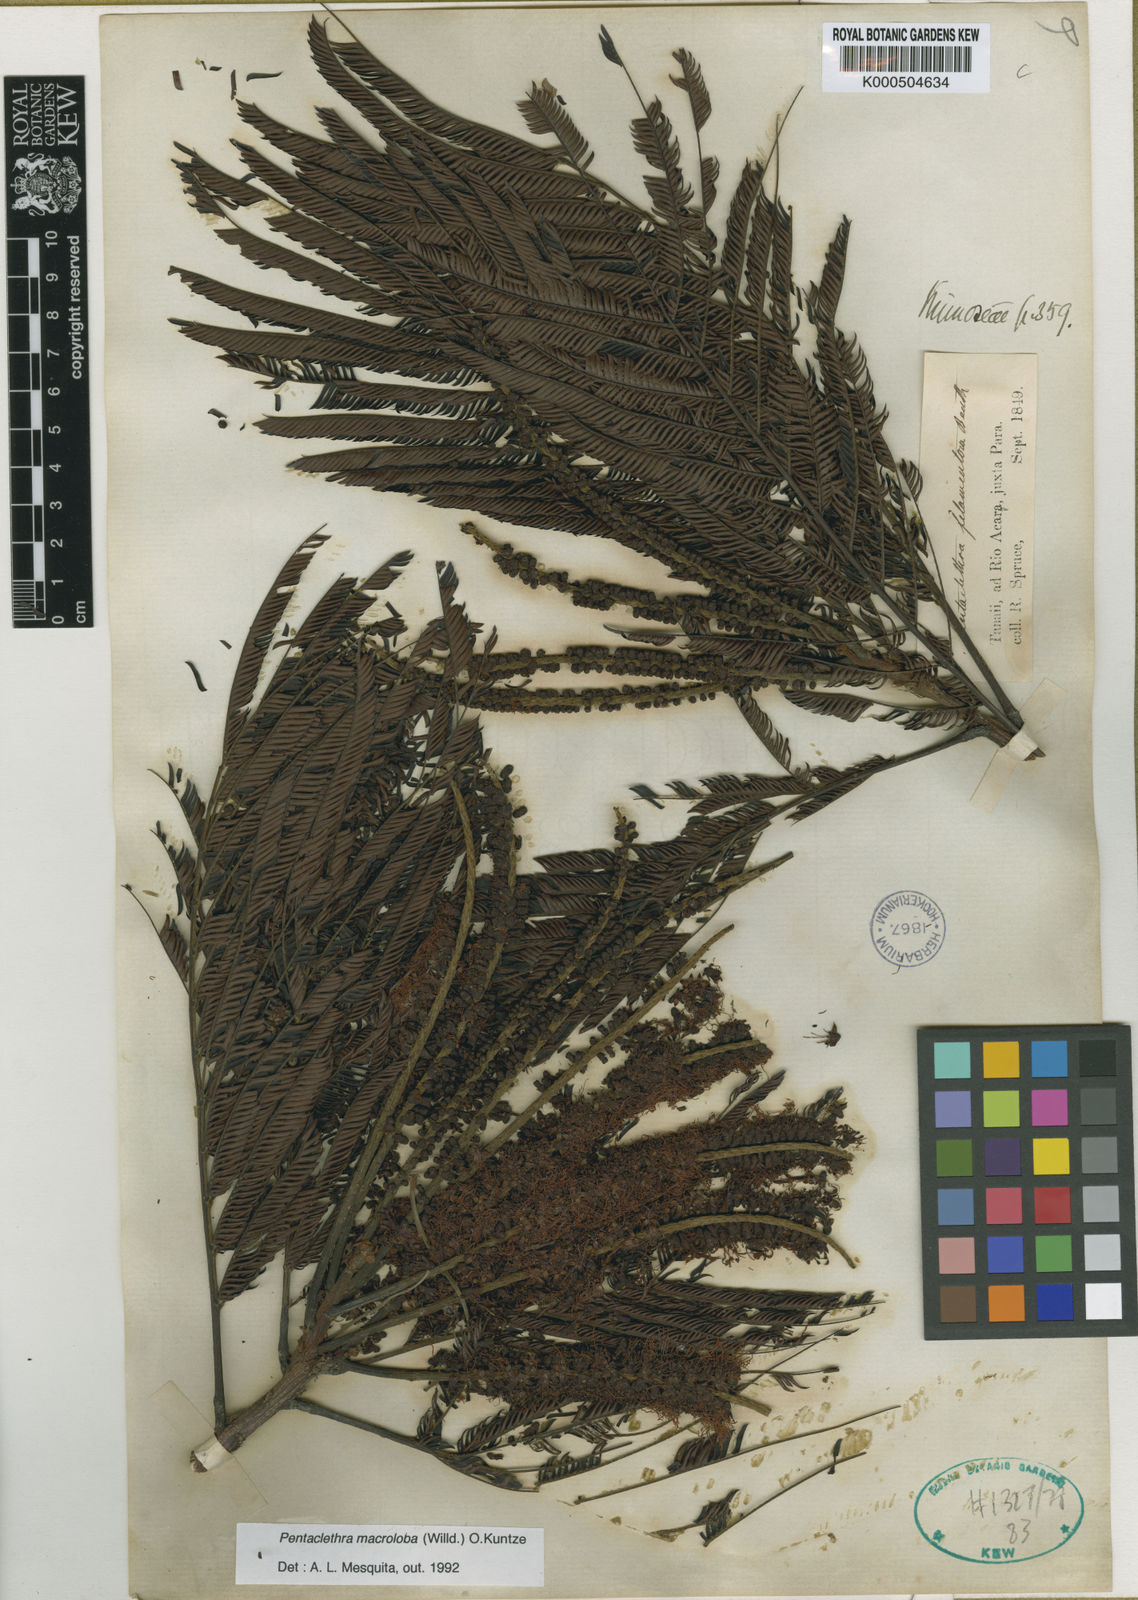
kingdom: Plantae
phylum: Tracheophyta
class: Magnoliopsida
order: Fabales
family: Fabaceae
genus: Pentaclethra
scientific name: Pentaclethra macroloba
